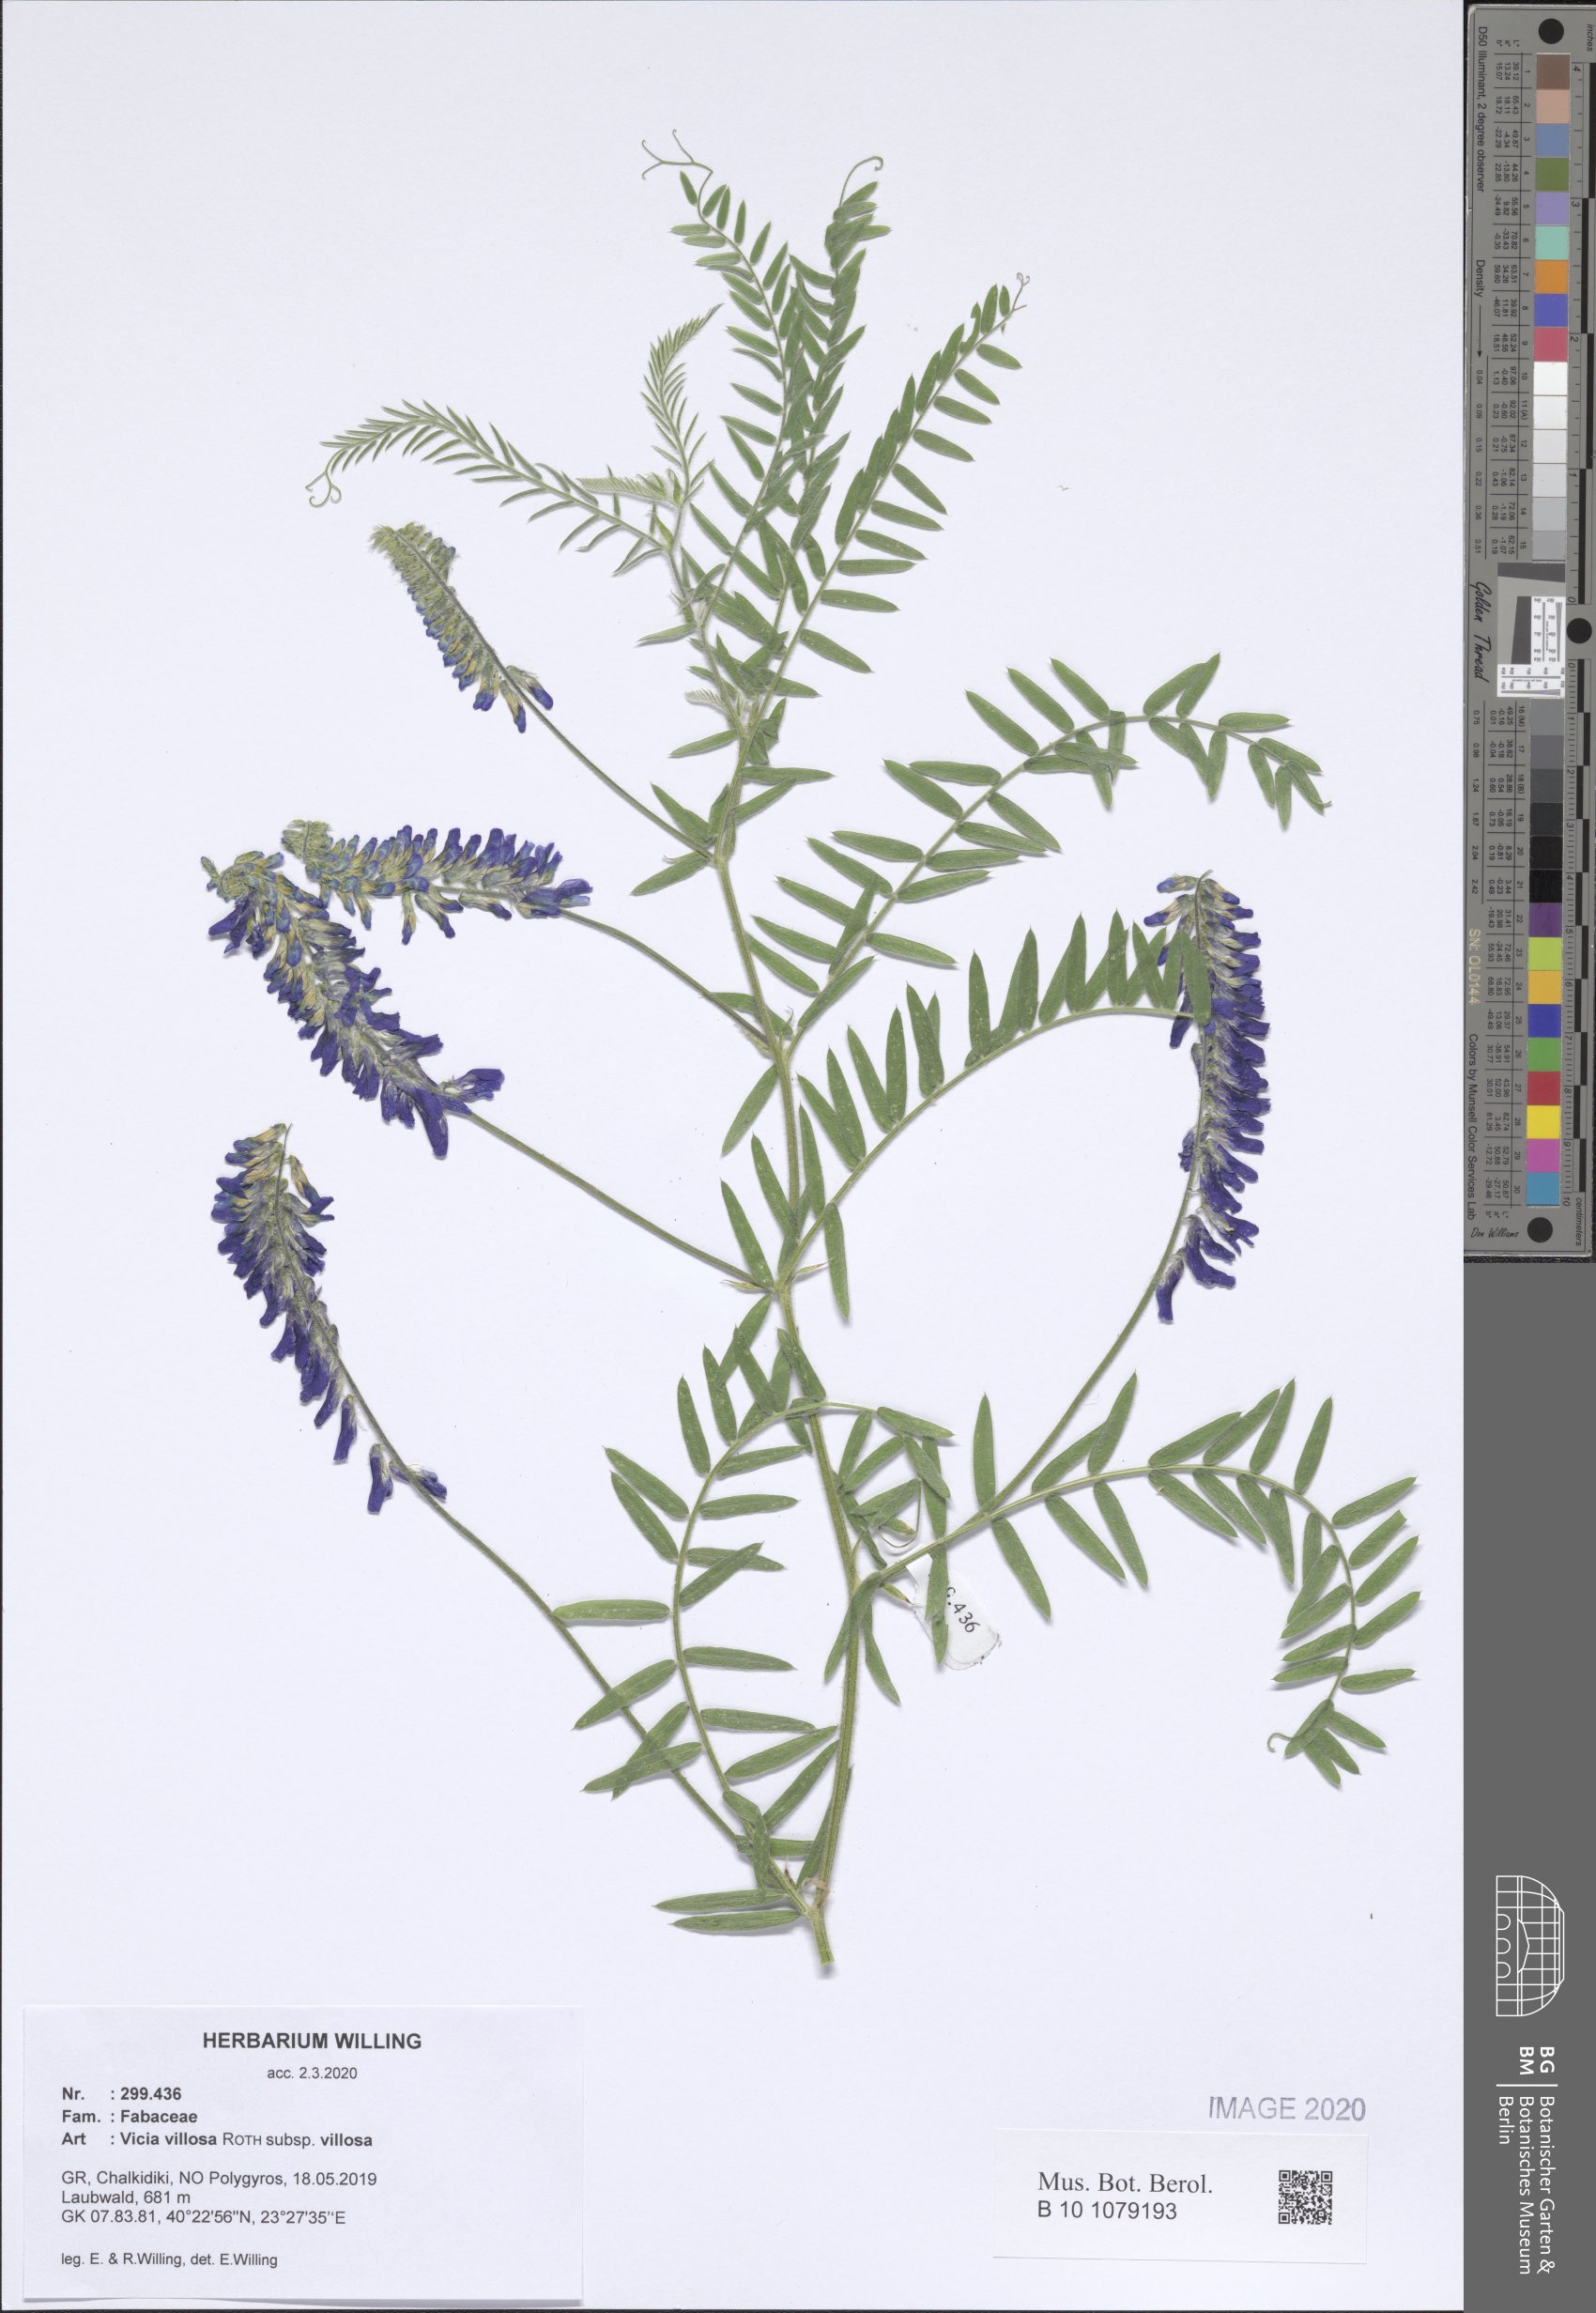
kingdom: Plantae
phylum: Tracheophyta
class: Magnoliopsida
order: Fabales
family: Fabaceae
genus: Vicia
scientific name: Vicia villosa
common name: Fodder vetch
